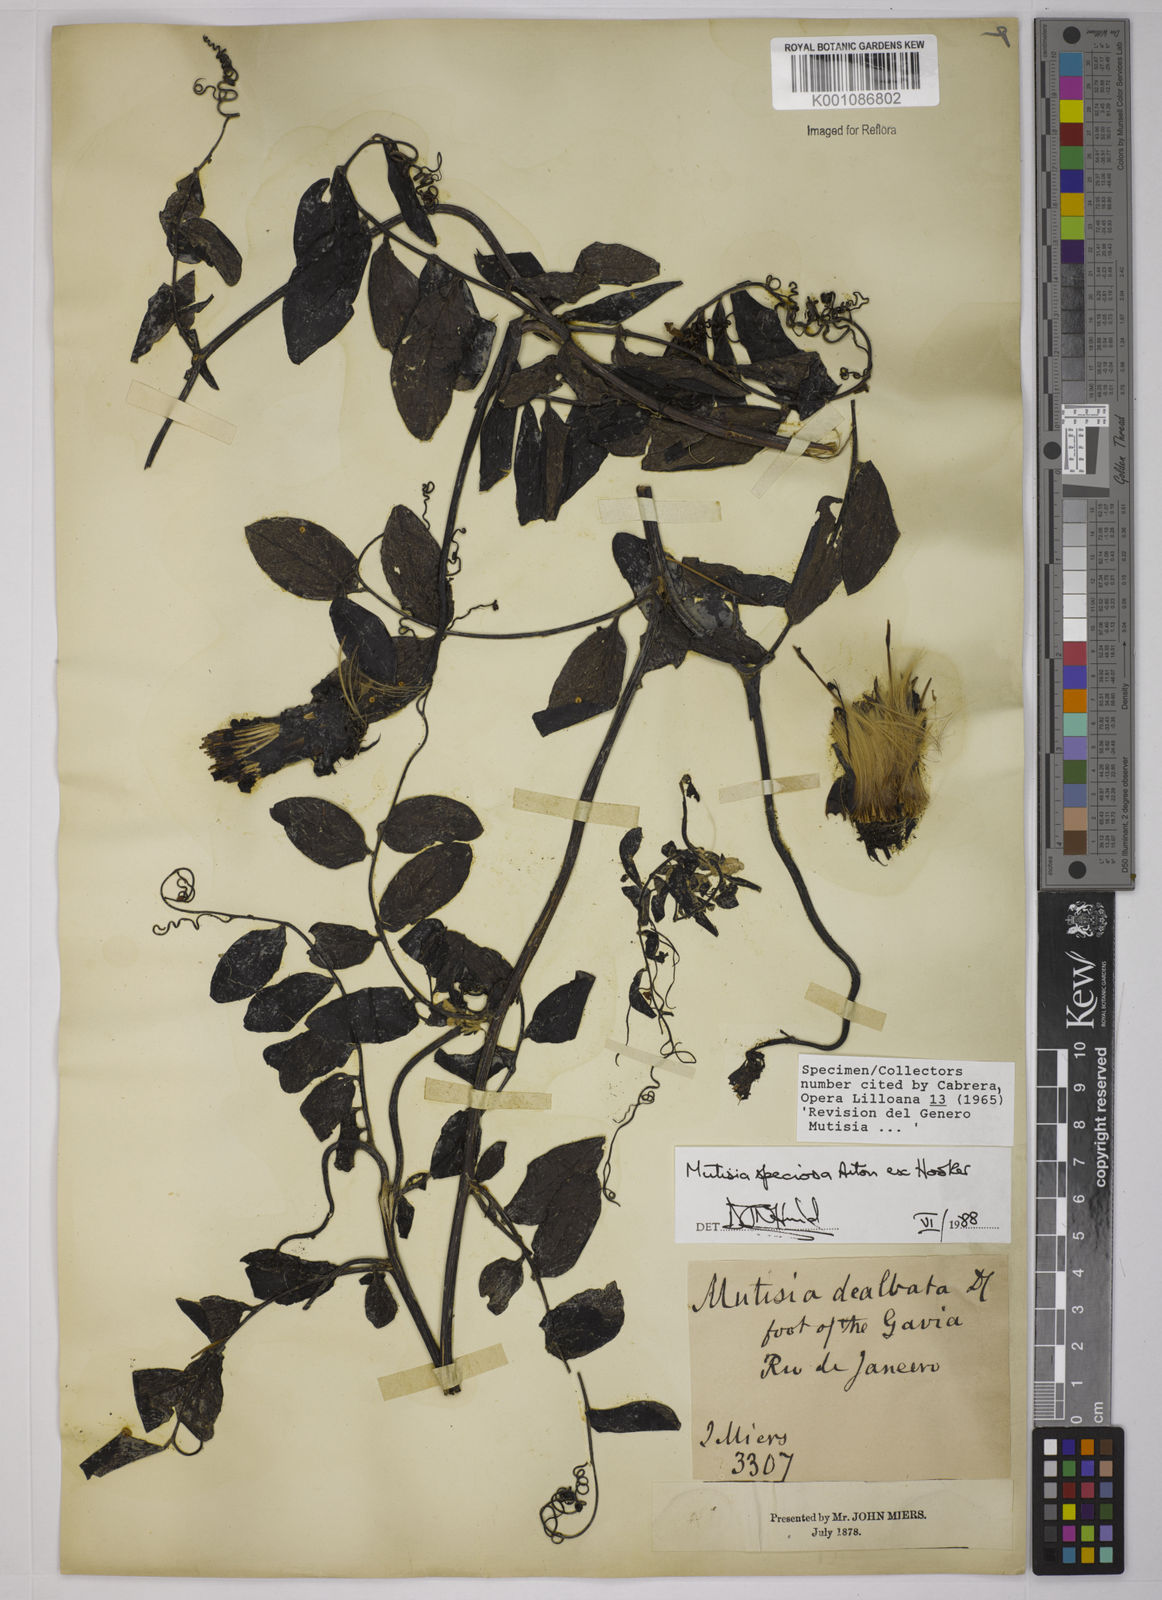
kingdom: Plantae
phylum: Tracheophyta
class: Magnoliopsida
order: Asterales
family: Asteraceae
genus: Mutisia
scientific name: Mutisia speciosa
